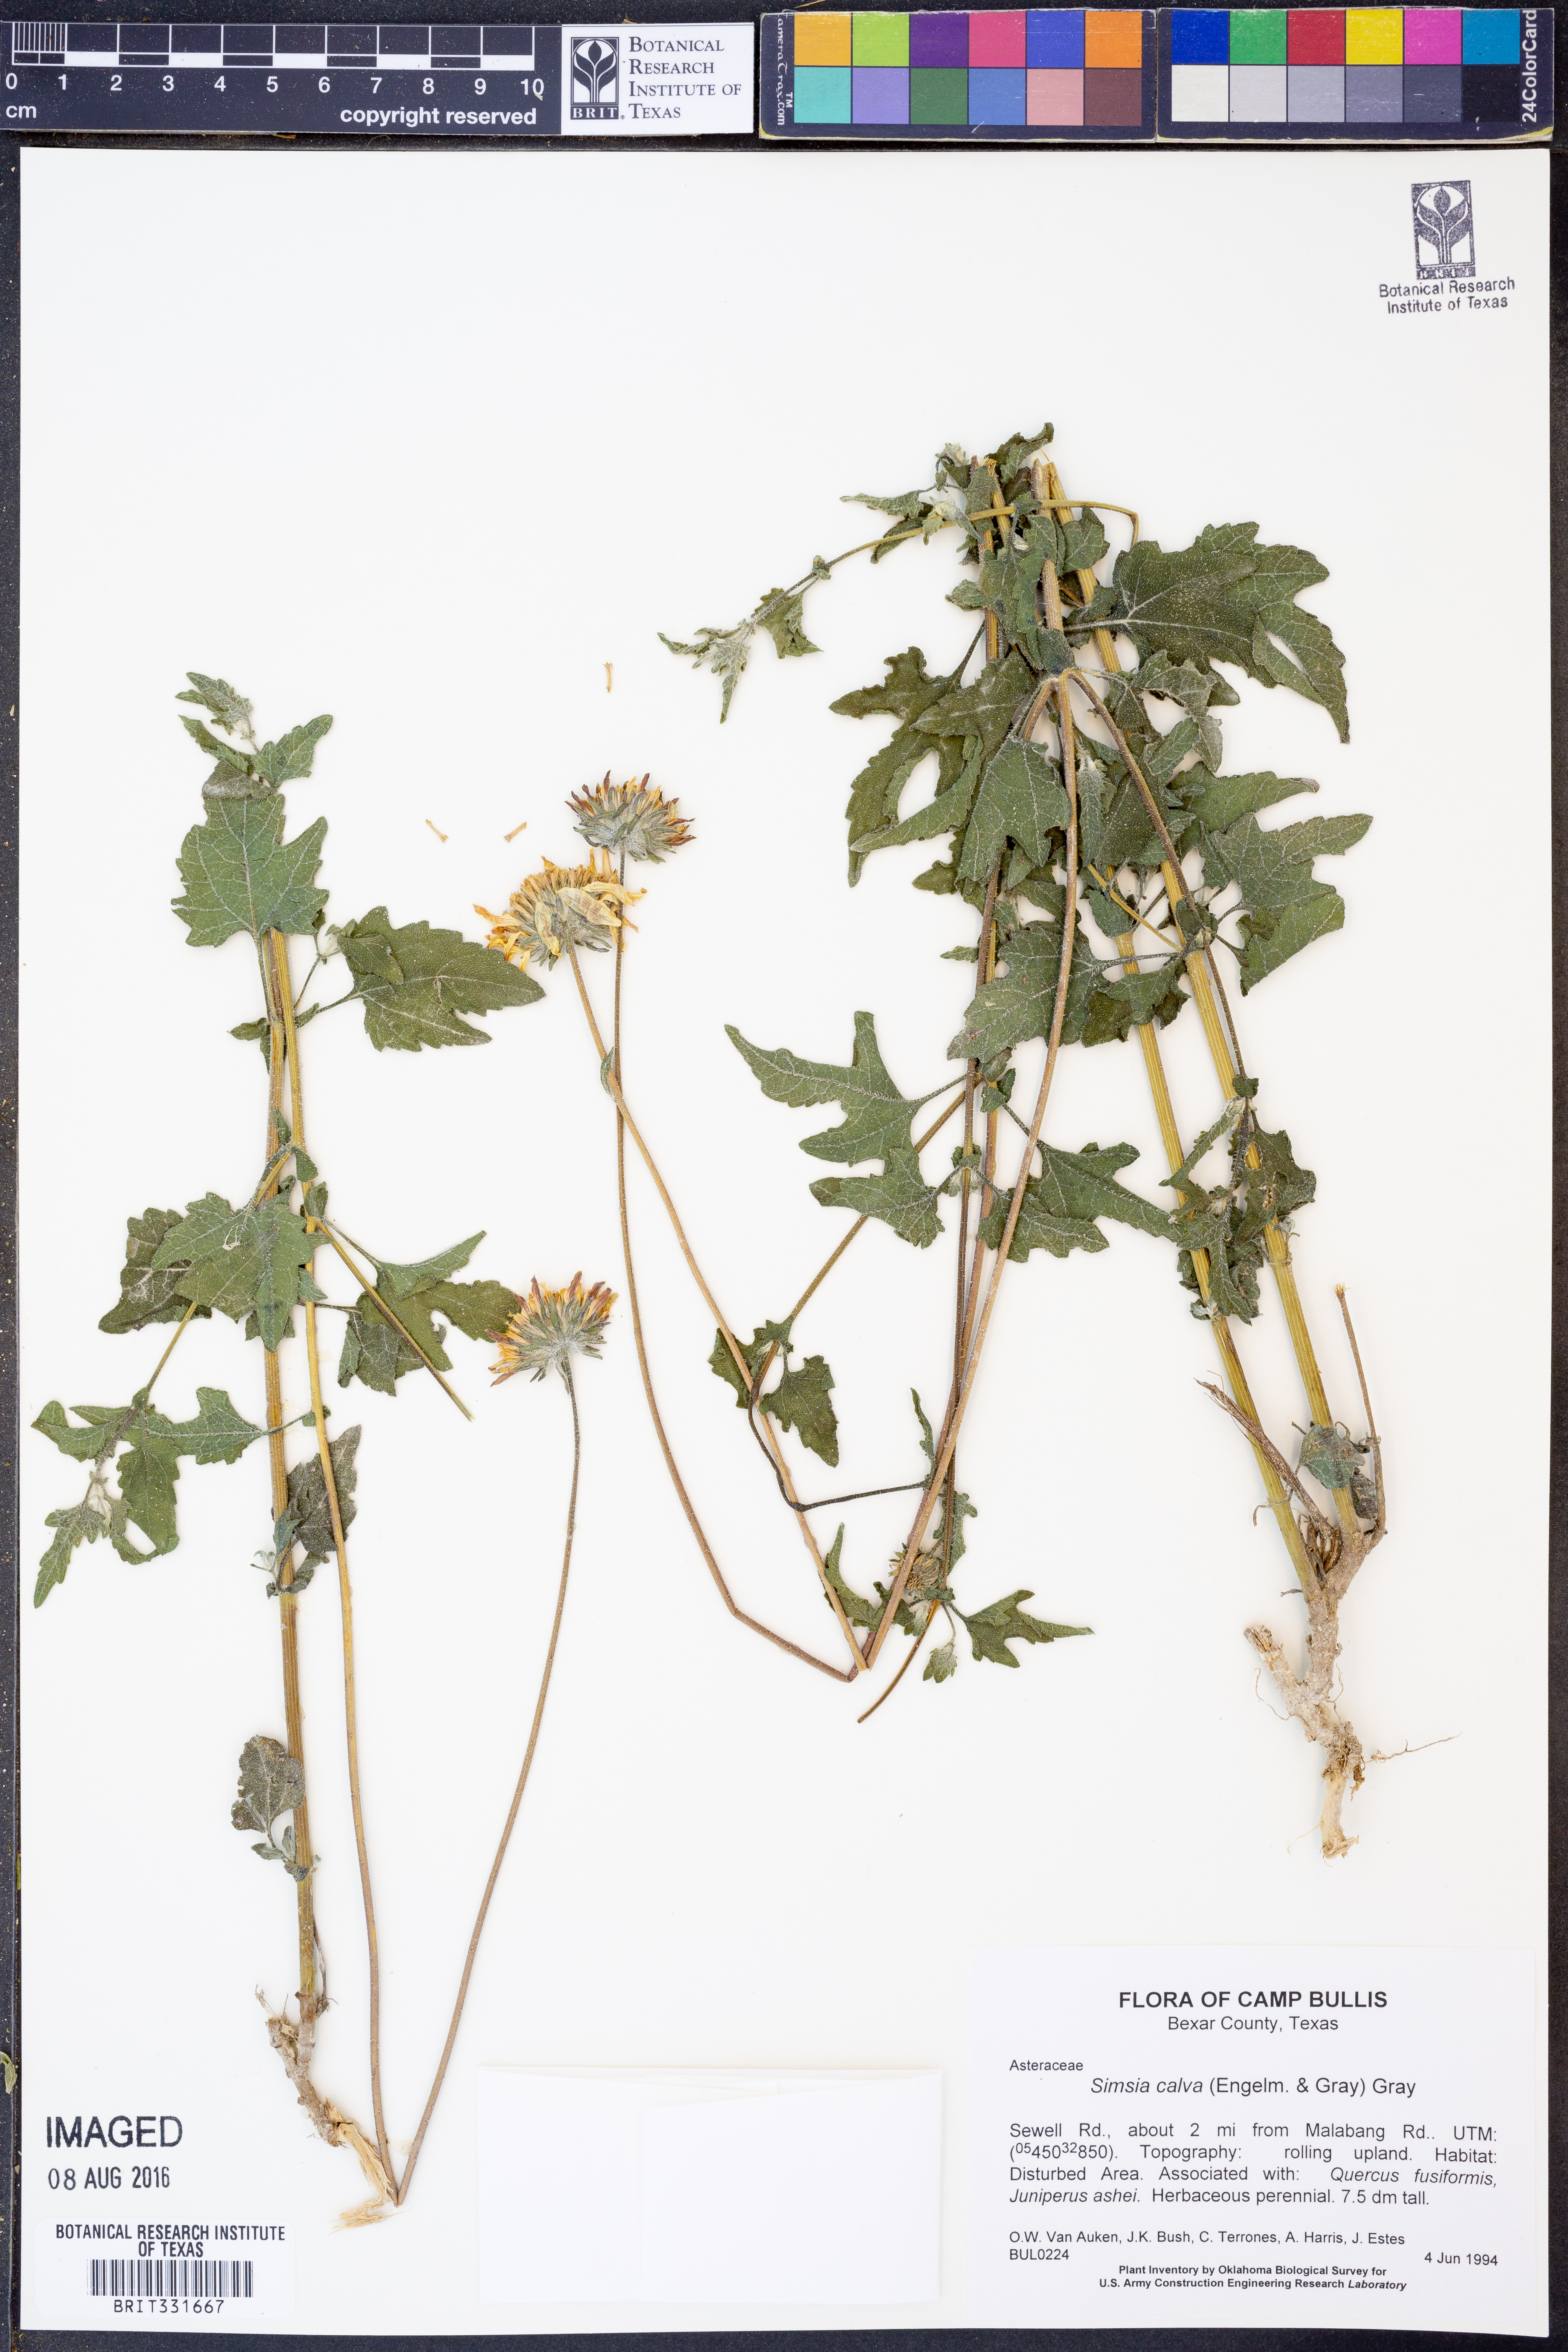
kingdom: Plantae
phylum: Tracheophyta
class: Magnoliopsida
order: Asterales
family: Asteraceae
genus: Simsia
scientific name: Simsia calva
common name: Awnless bush-sunflower
